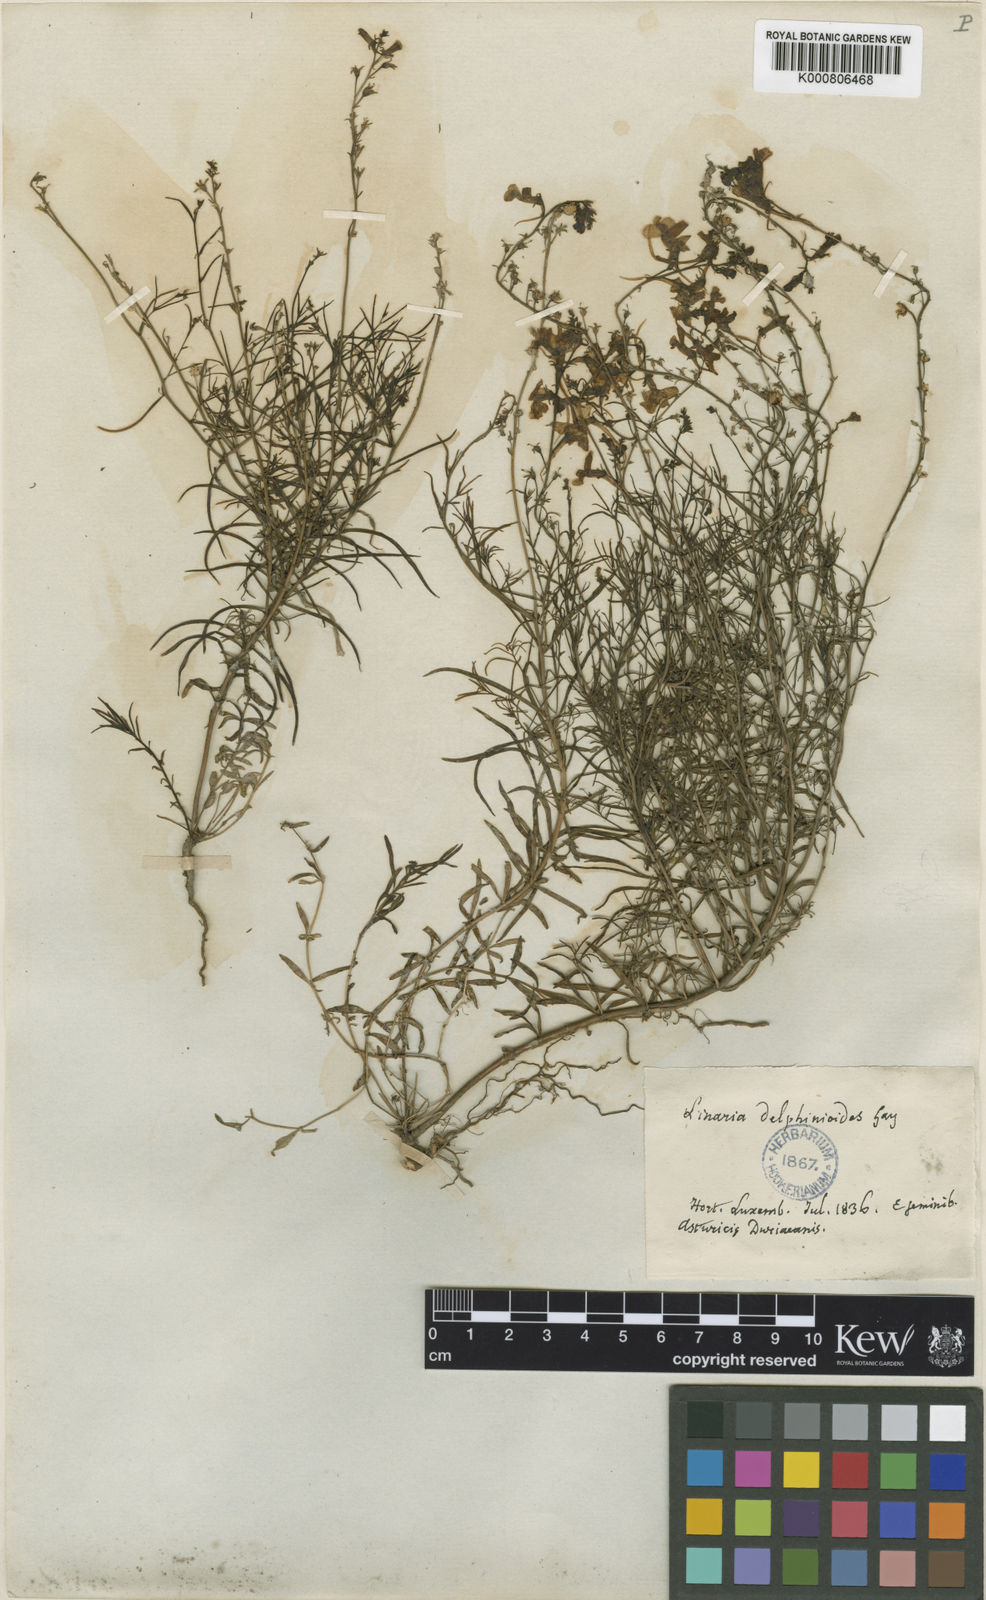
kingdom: Plantae
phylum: Tracheophyta
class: Magnoliopsida
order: Lamiales
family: Plantaginaceae
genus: Linaria
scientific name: Linaria elegans
